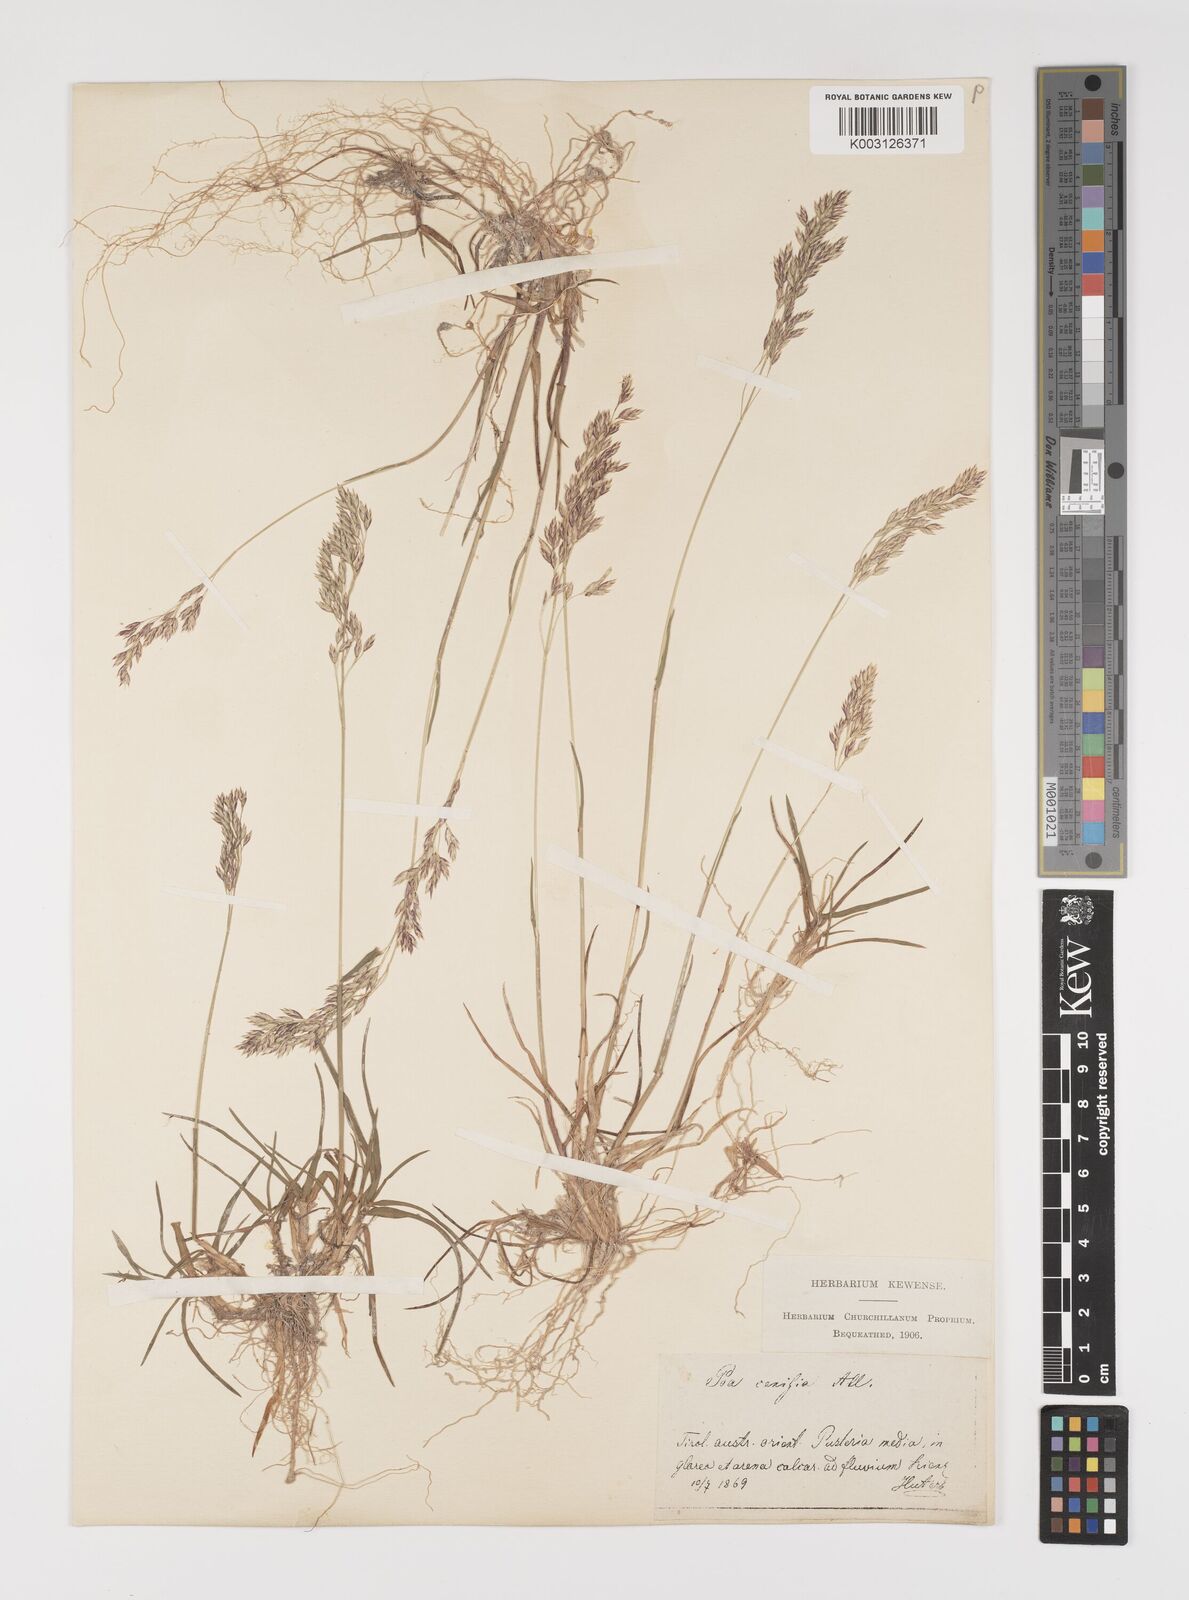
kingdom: Plantae
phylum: Tracheophyta
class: Liliopsida
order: Poales
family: Poaceae
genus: Poa
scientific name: Poa glauca
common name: Glaucous bluegrass
